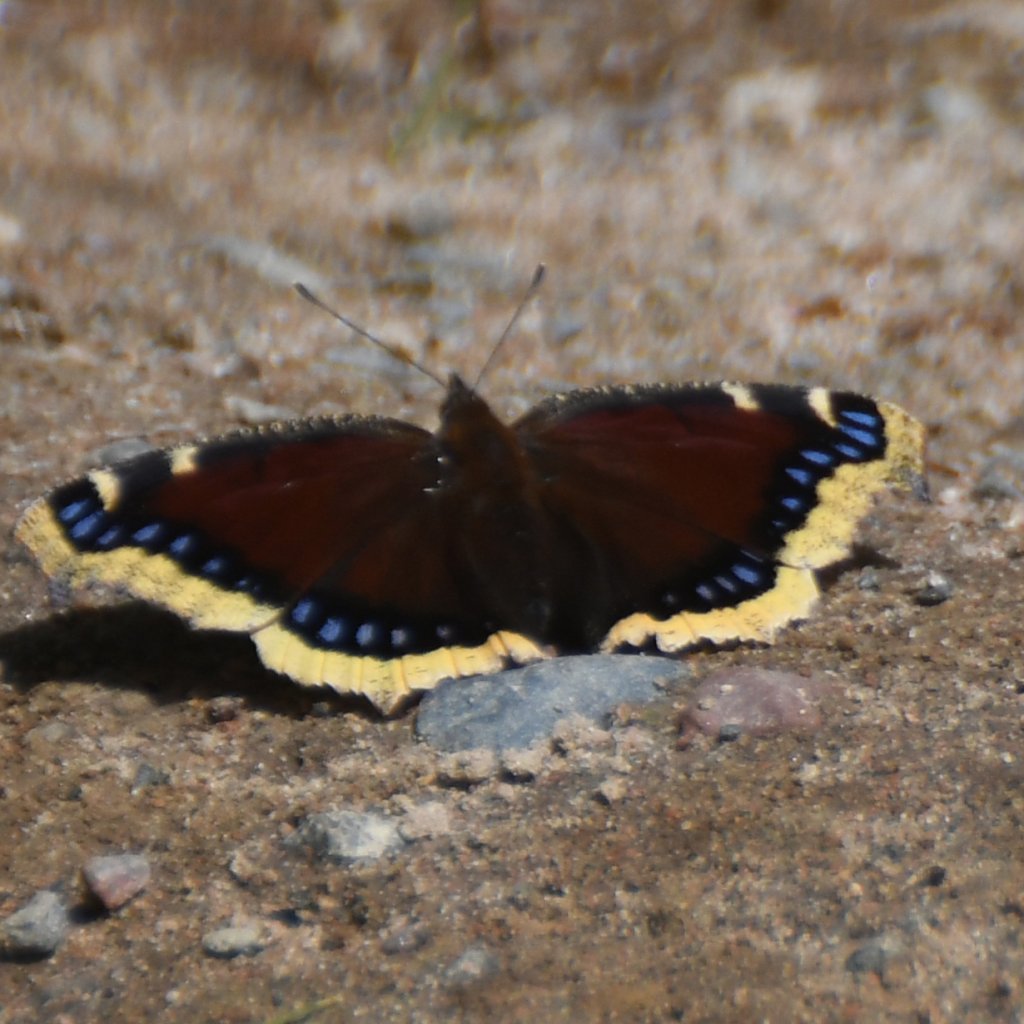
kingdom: Animalia
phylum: Arthropoda
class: Insecta
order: Lepidoptera
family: Nymphalidae
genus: Nymphalis
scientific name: Nymphalis antiopa
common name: Mourning Cloak
